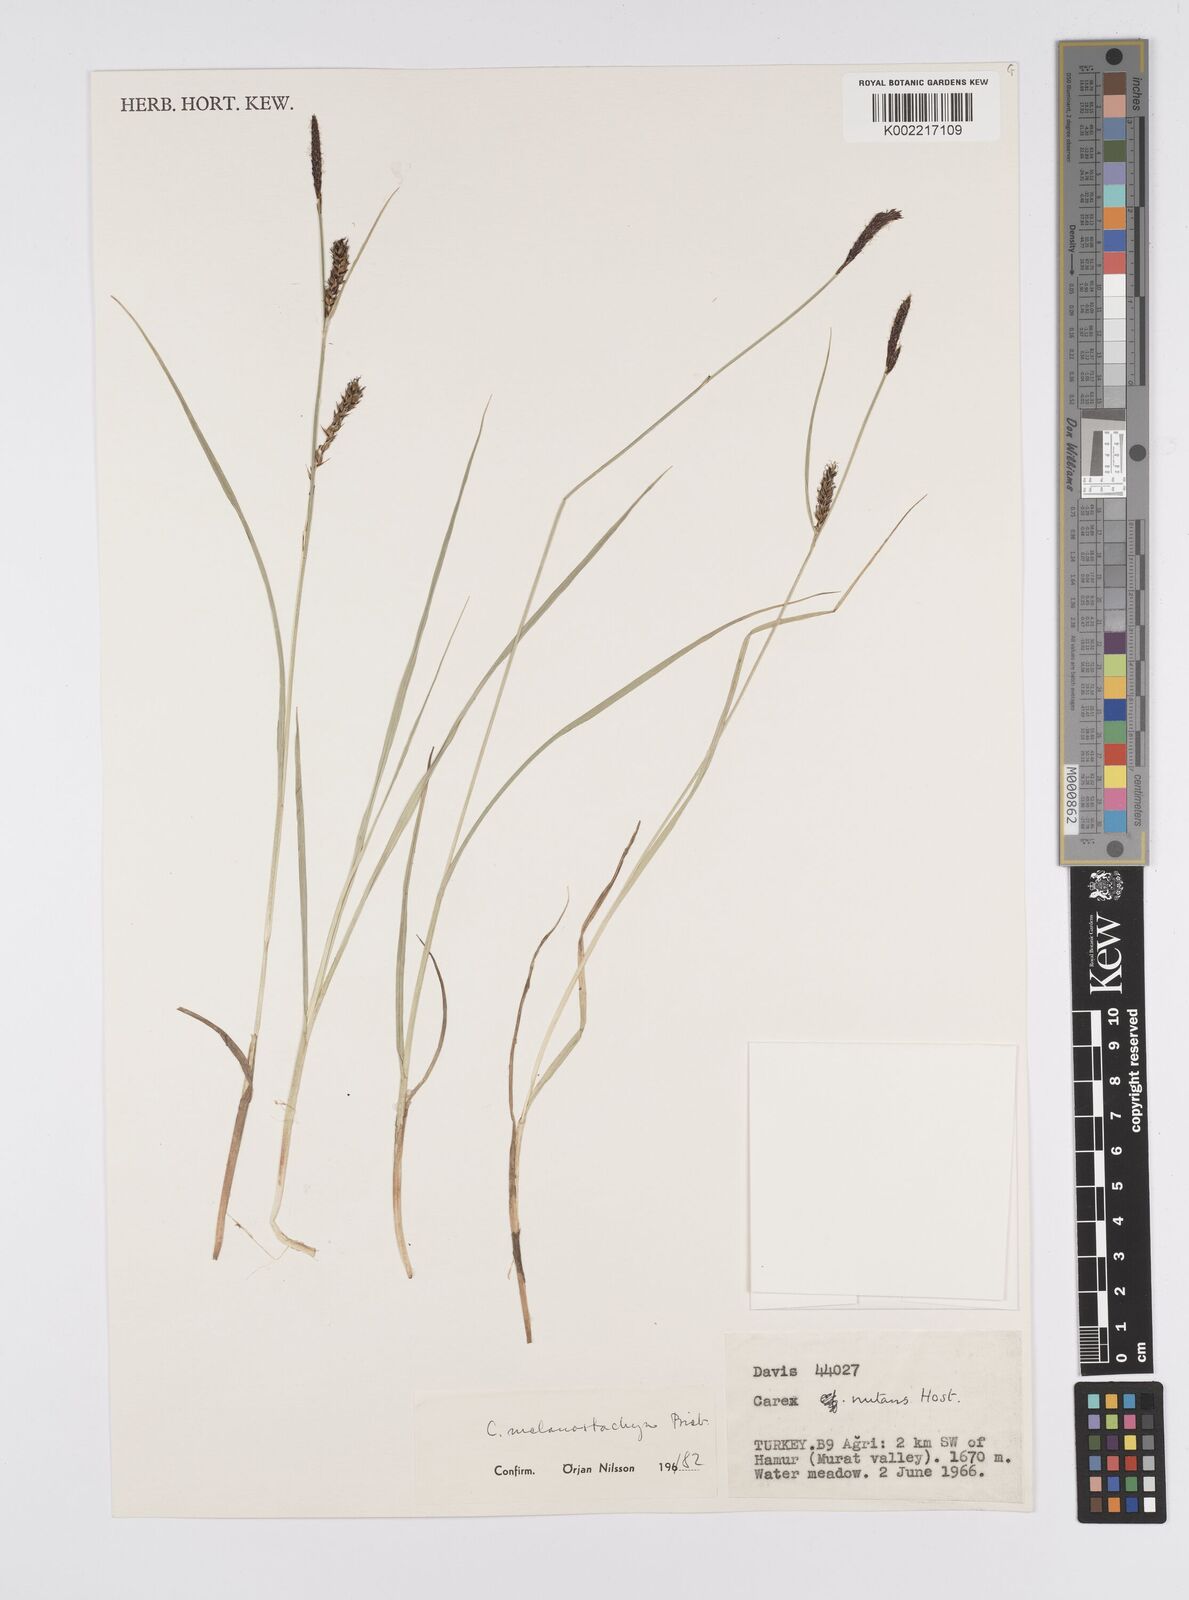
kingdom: Plantae
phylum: Tracheophyta
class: Liliopsida
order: Poales
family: Cyperaceae
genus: Carex
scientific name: Carex melanostachya
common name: Black-spiked sedge
